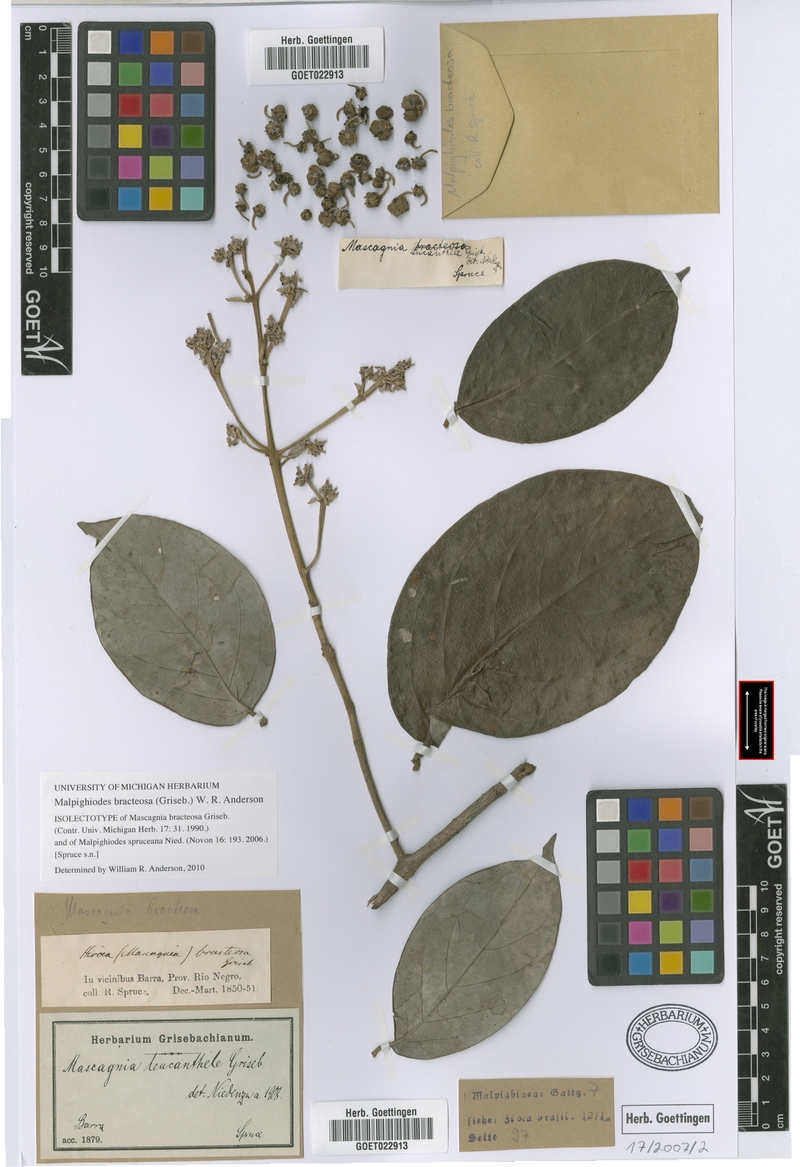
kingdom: Plantae
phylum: Tracheophyta
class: Magnoliopsida
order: Malpighiales
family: Malpighiaceae
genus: Malpighiodes
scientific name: Malpighiodes bracteosa
